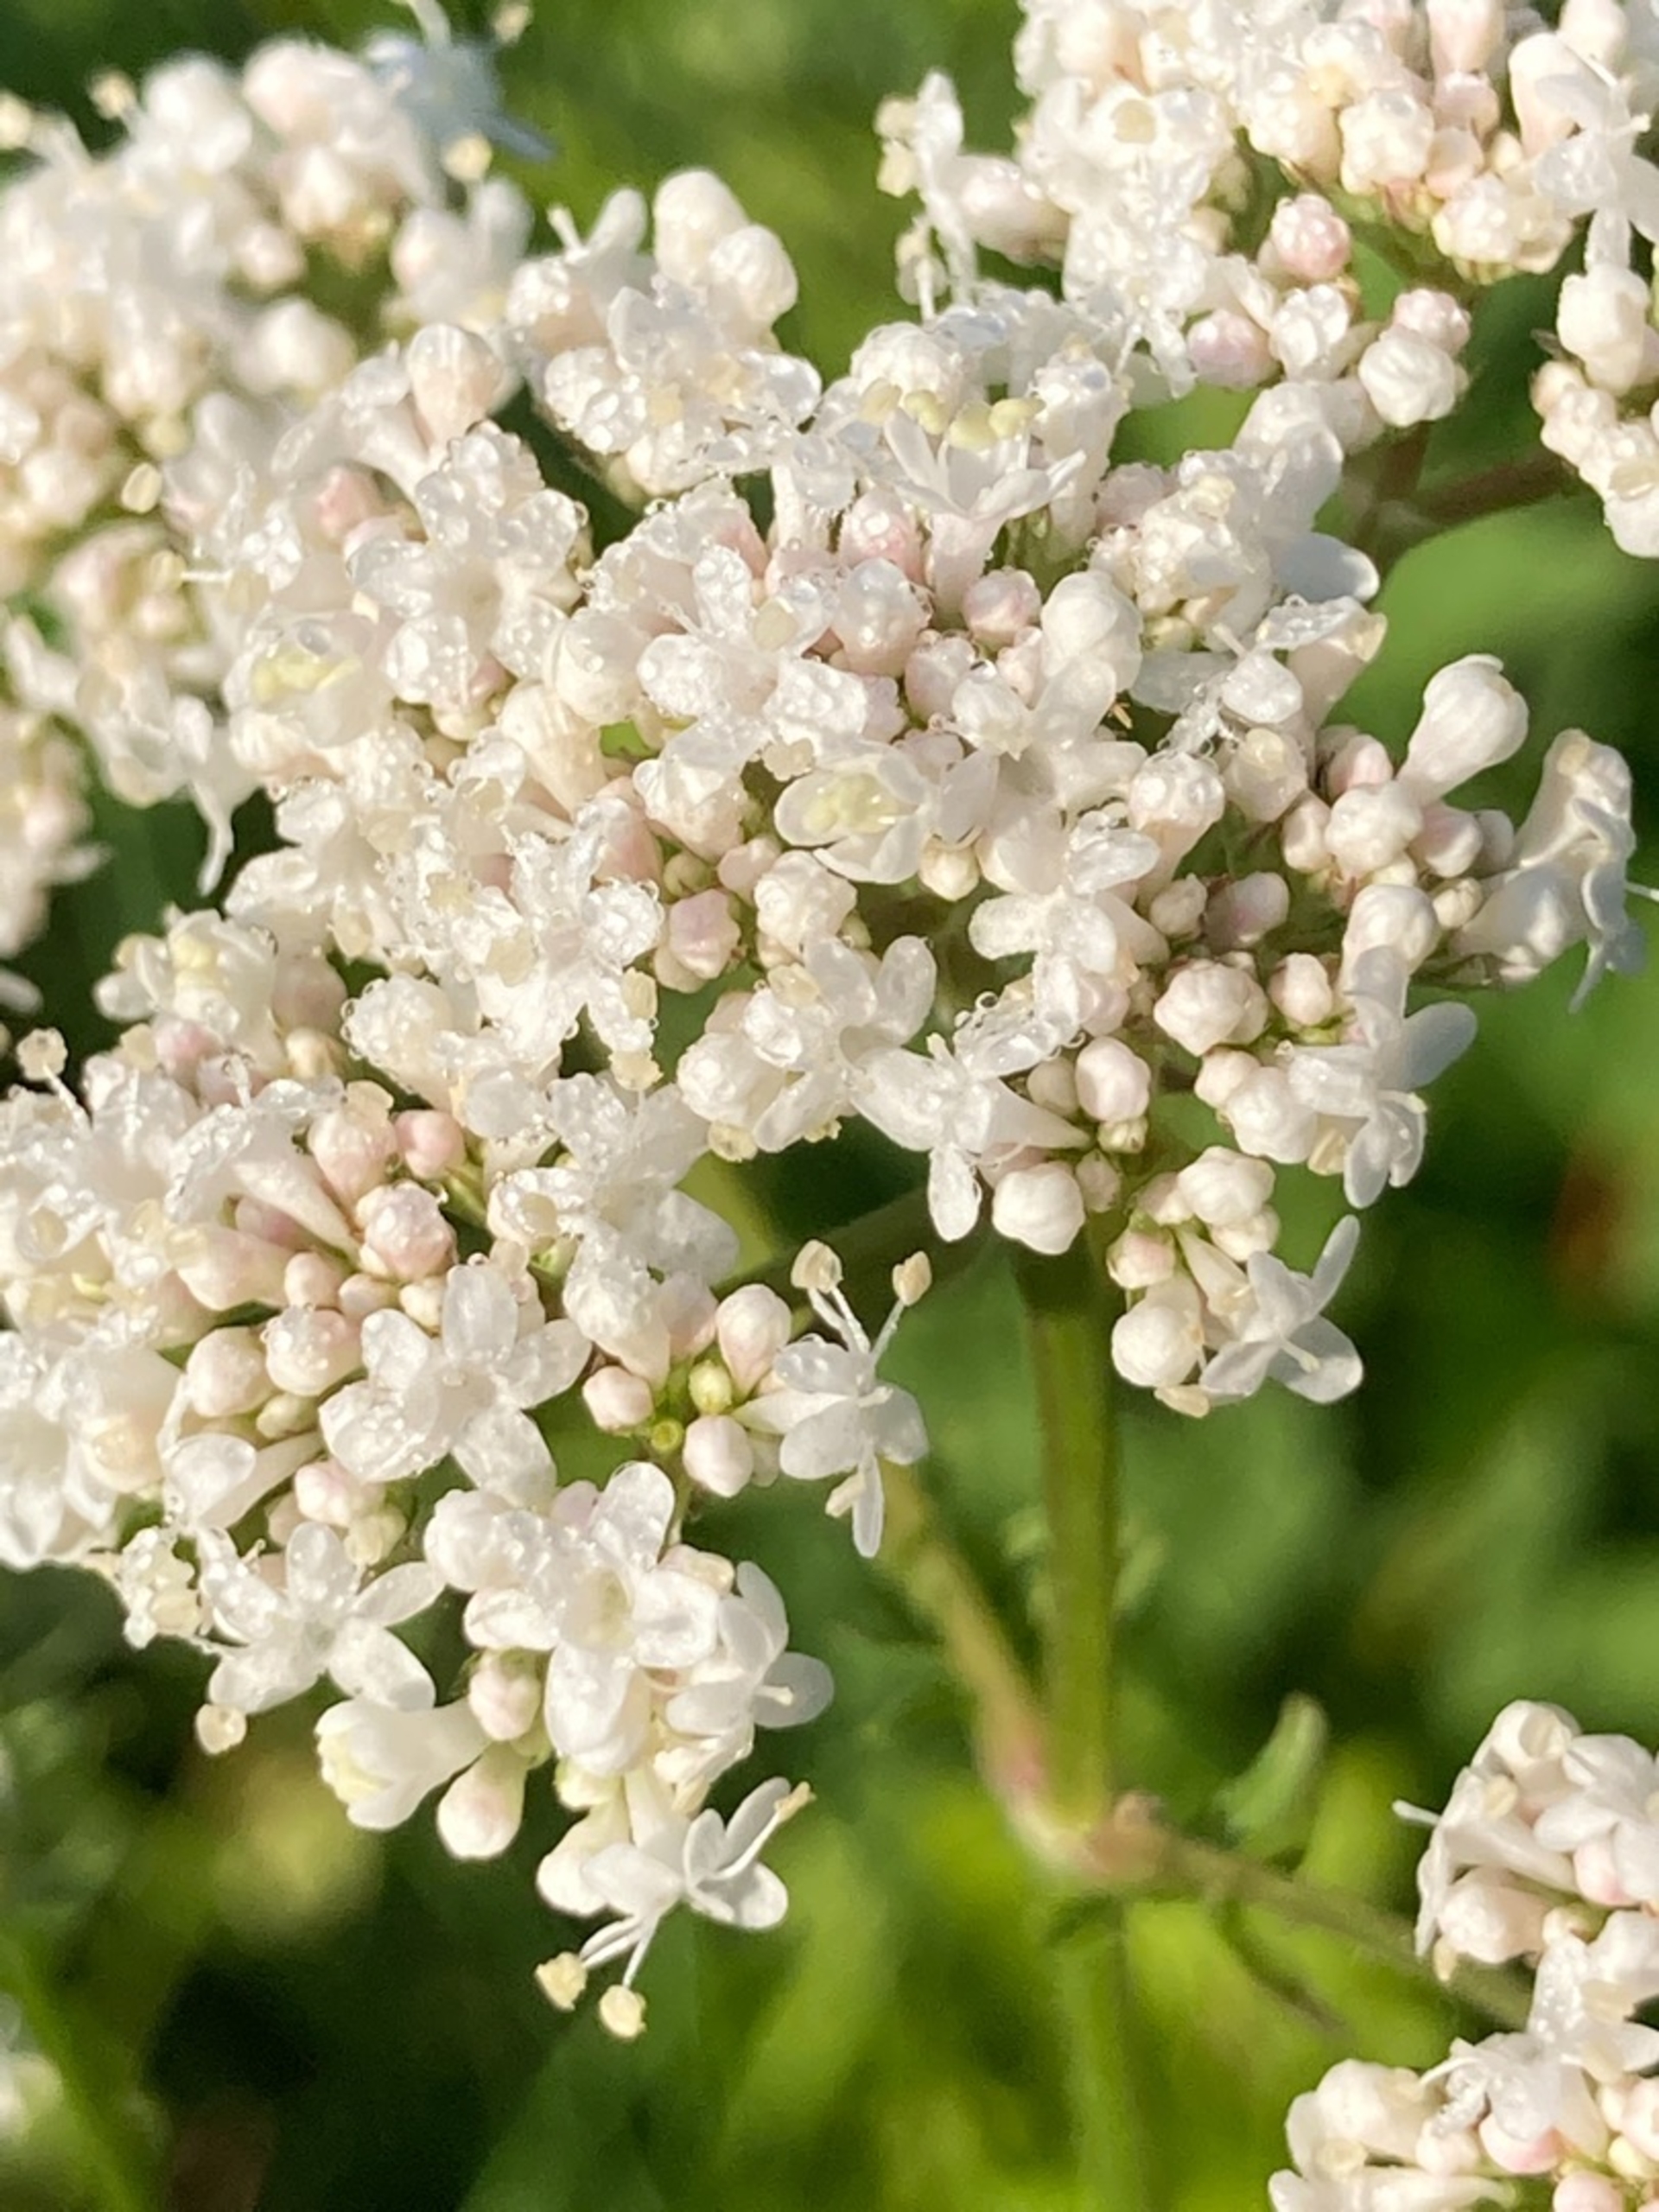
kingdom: Plantae
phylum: Tracheophyta
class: Magnoliopsida
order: Dipsacales
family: Caprifoliaceae
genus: Valeriana
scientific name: Valeriana officinalis
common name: Læge-baldrian
